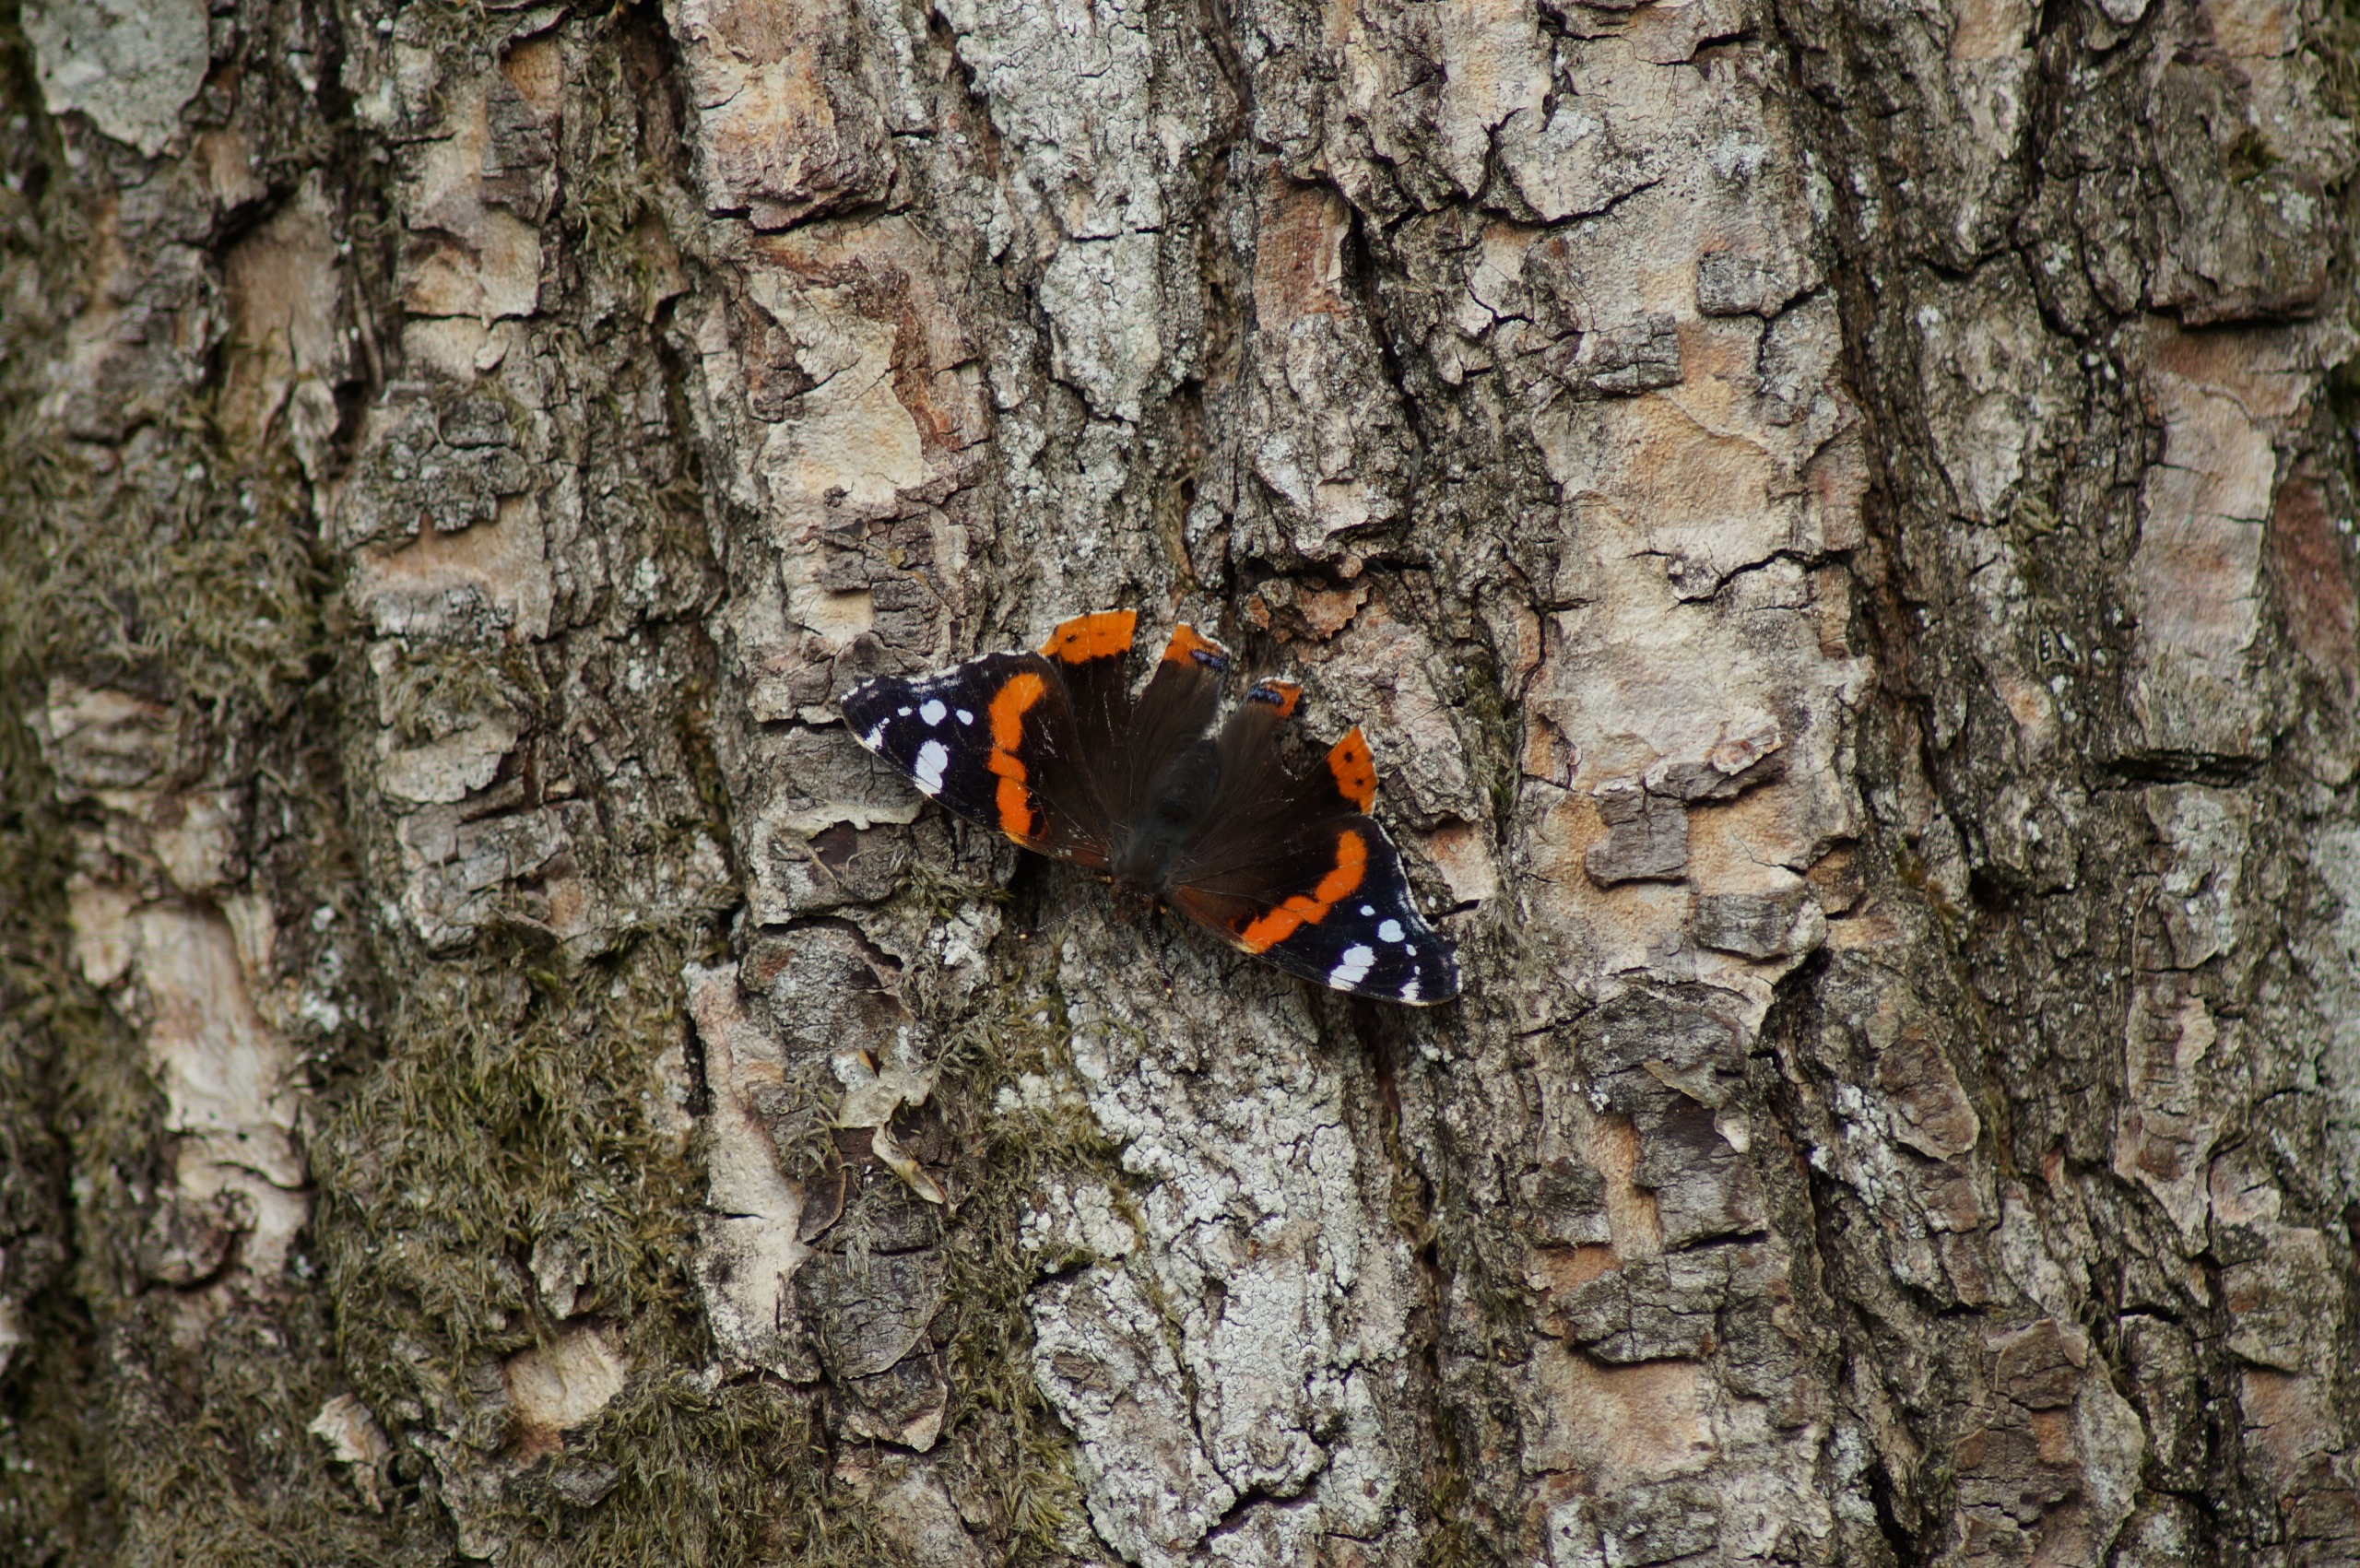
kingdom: Animalia
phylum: Arthropoda
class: Insecta
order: Lepidoptera
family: Nymphalidae
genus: Vanessa
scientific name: Vanessa atalanta
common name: Admiral
